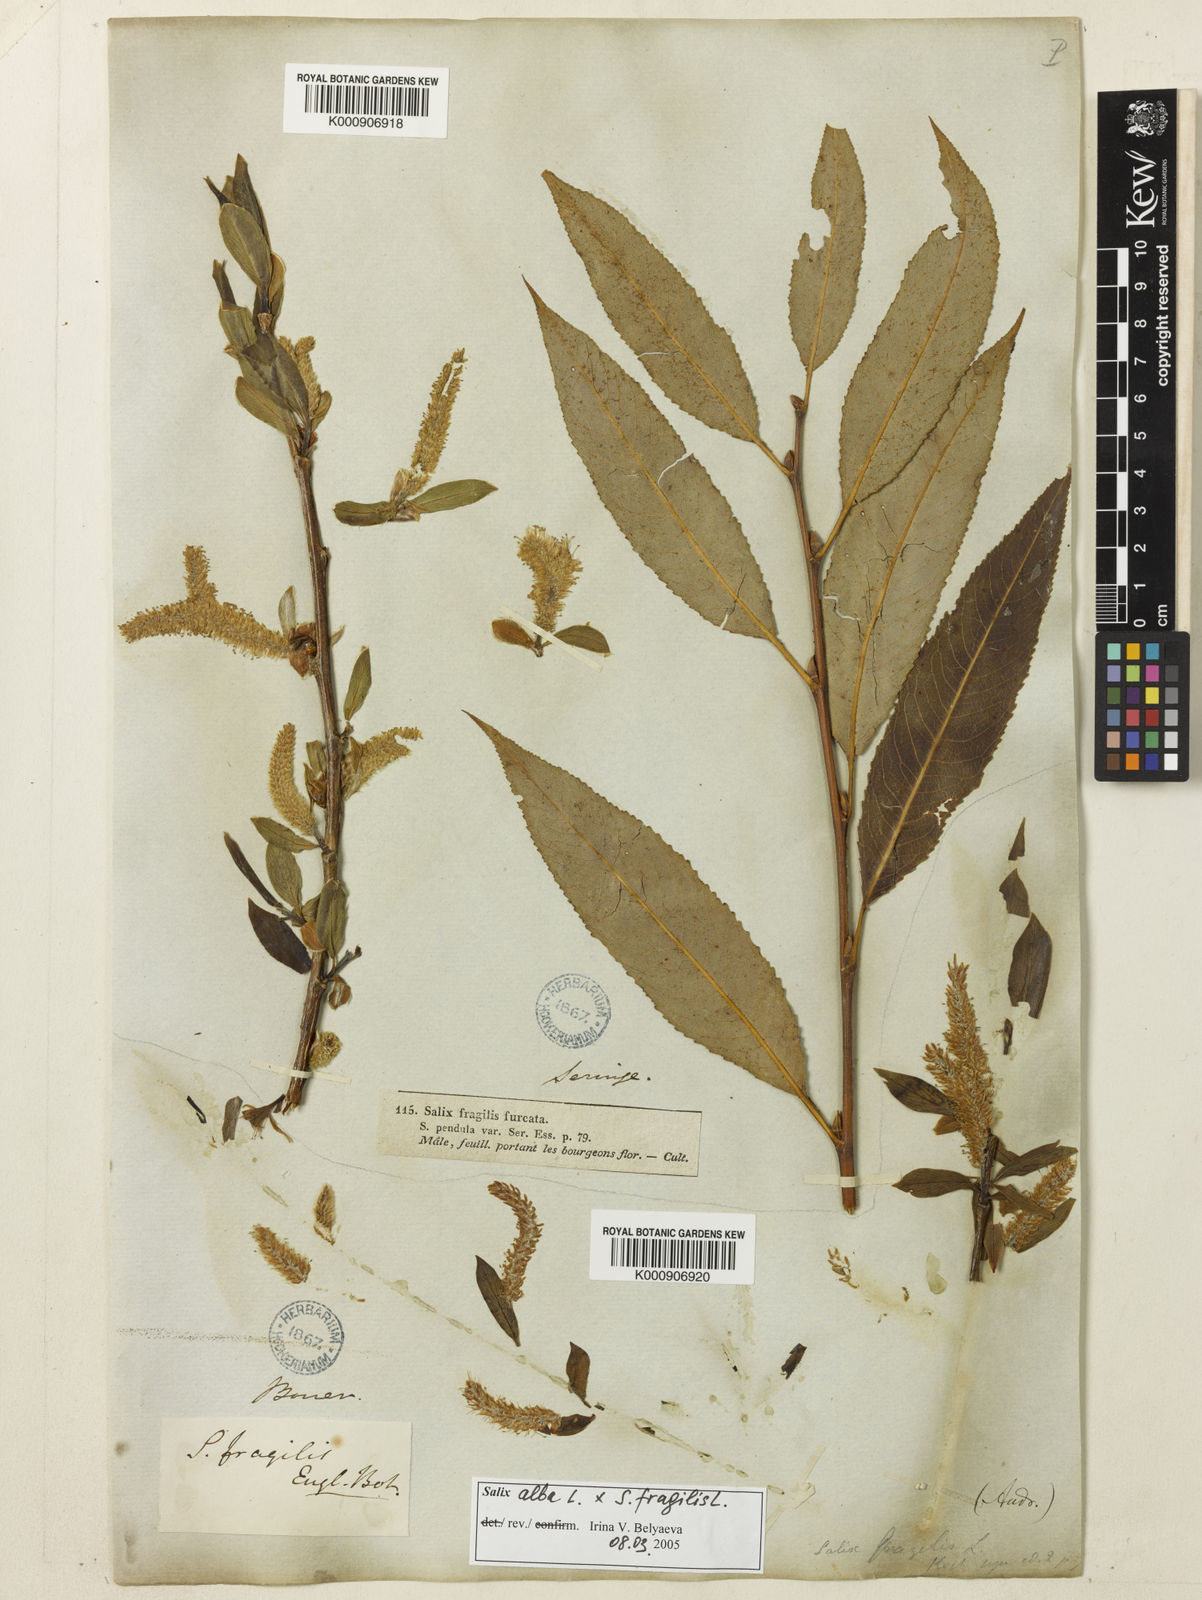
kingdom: Plantae
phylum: Tracheophyta
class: Magnoliopsida
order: Malpighiales
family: Salicaceae
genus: Salix
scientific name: Salix fragilis
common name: Crack willow
